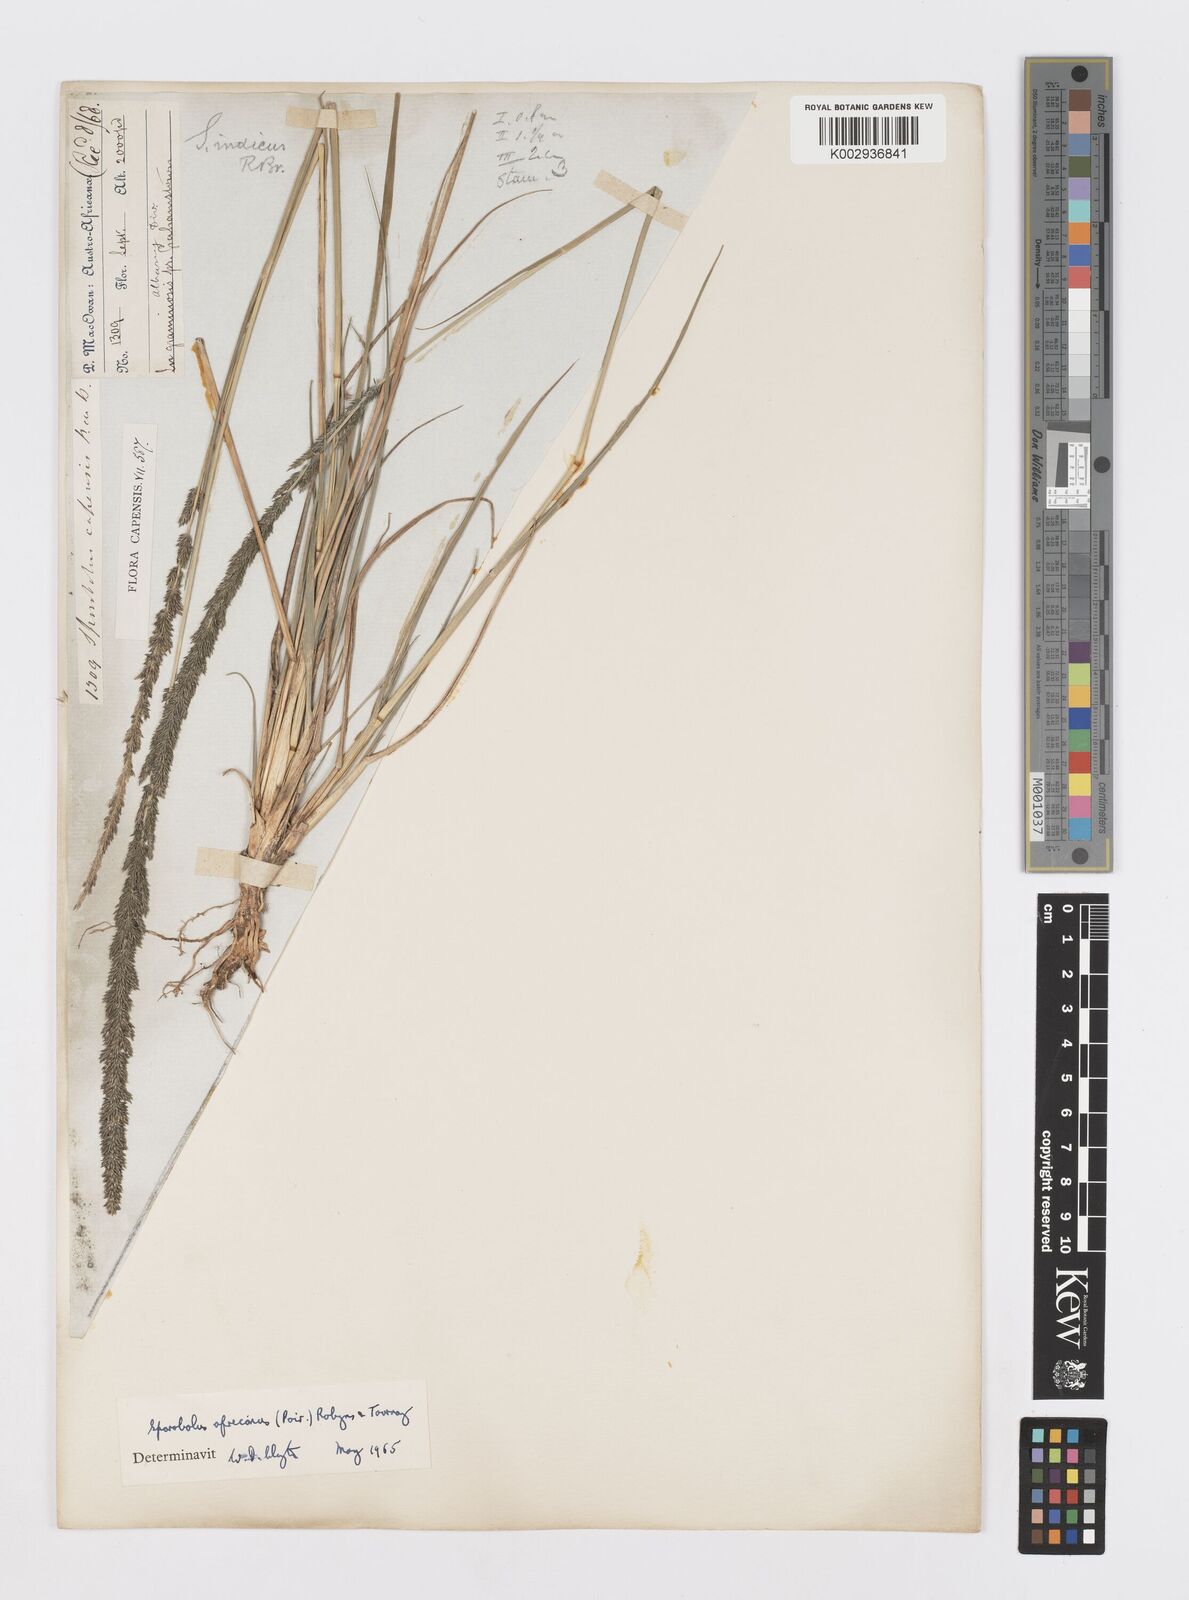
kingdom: Plantae
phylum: Tracheophyta
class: Liliopsida
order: Poales
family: Poaceae
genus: Sporobolus
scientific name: Sporobolus africanus
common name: African dropseed
